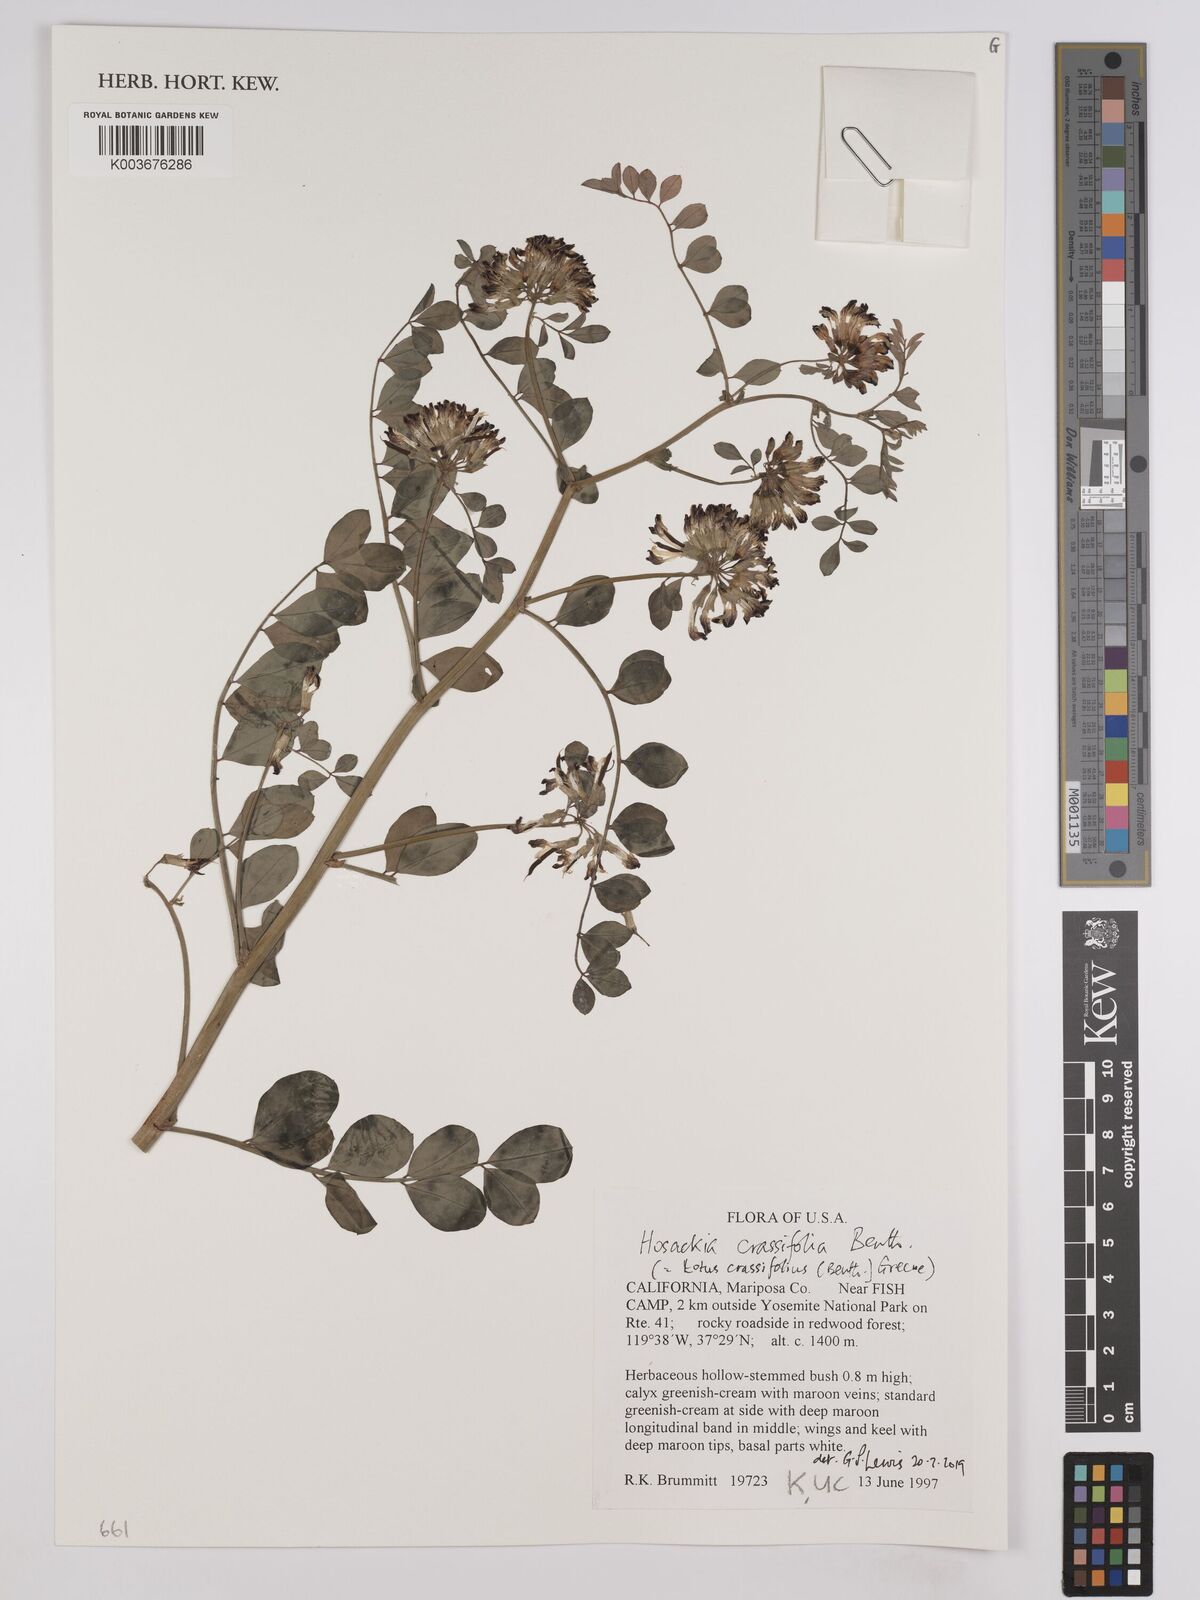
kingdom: Plantae
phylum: Tracheophyta
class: Magnoliopsida
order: Fabales
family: Fabaceae
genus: Hosackia
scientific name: Hosackia crassifolia
